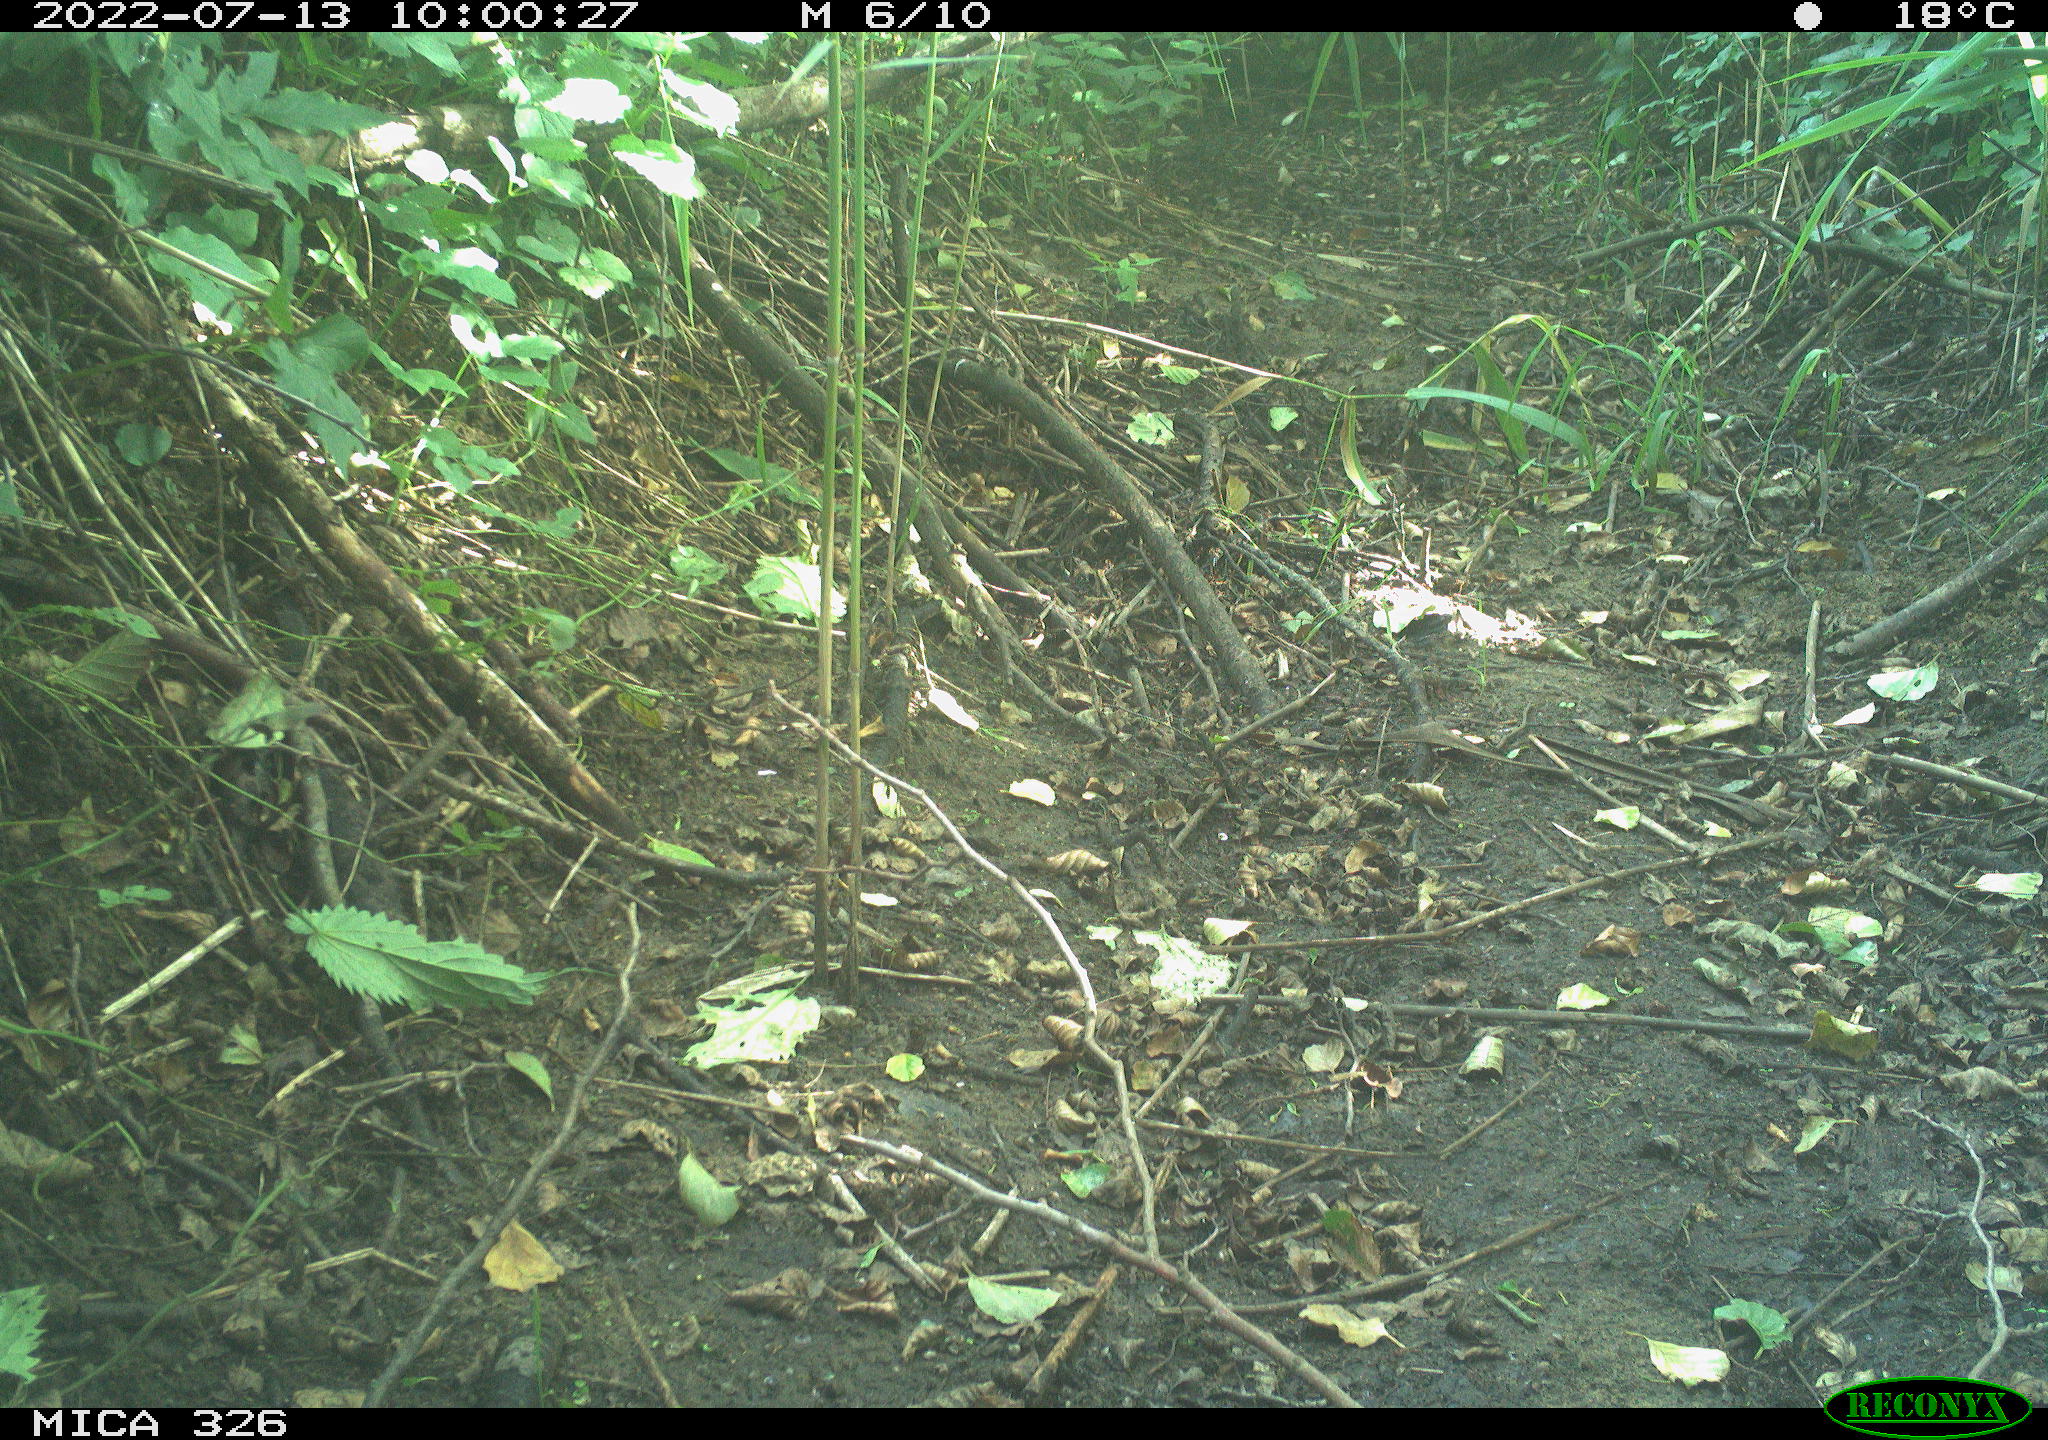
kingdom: Animalia
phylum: Chordata
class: Mammalia
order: Lagomorpha
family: Leporidae
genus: Lepus
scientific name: Lepus europaeus
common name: European hare
